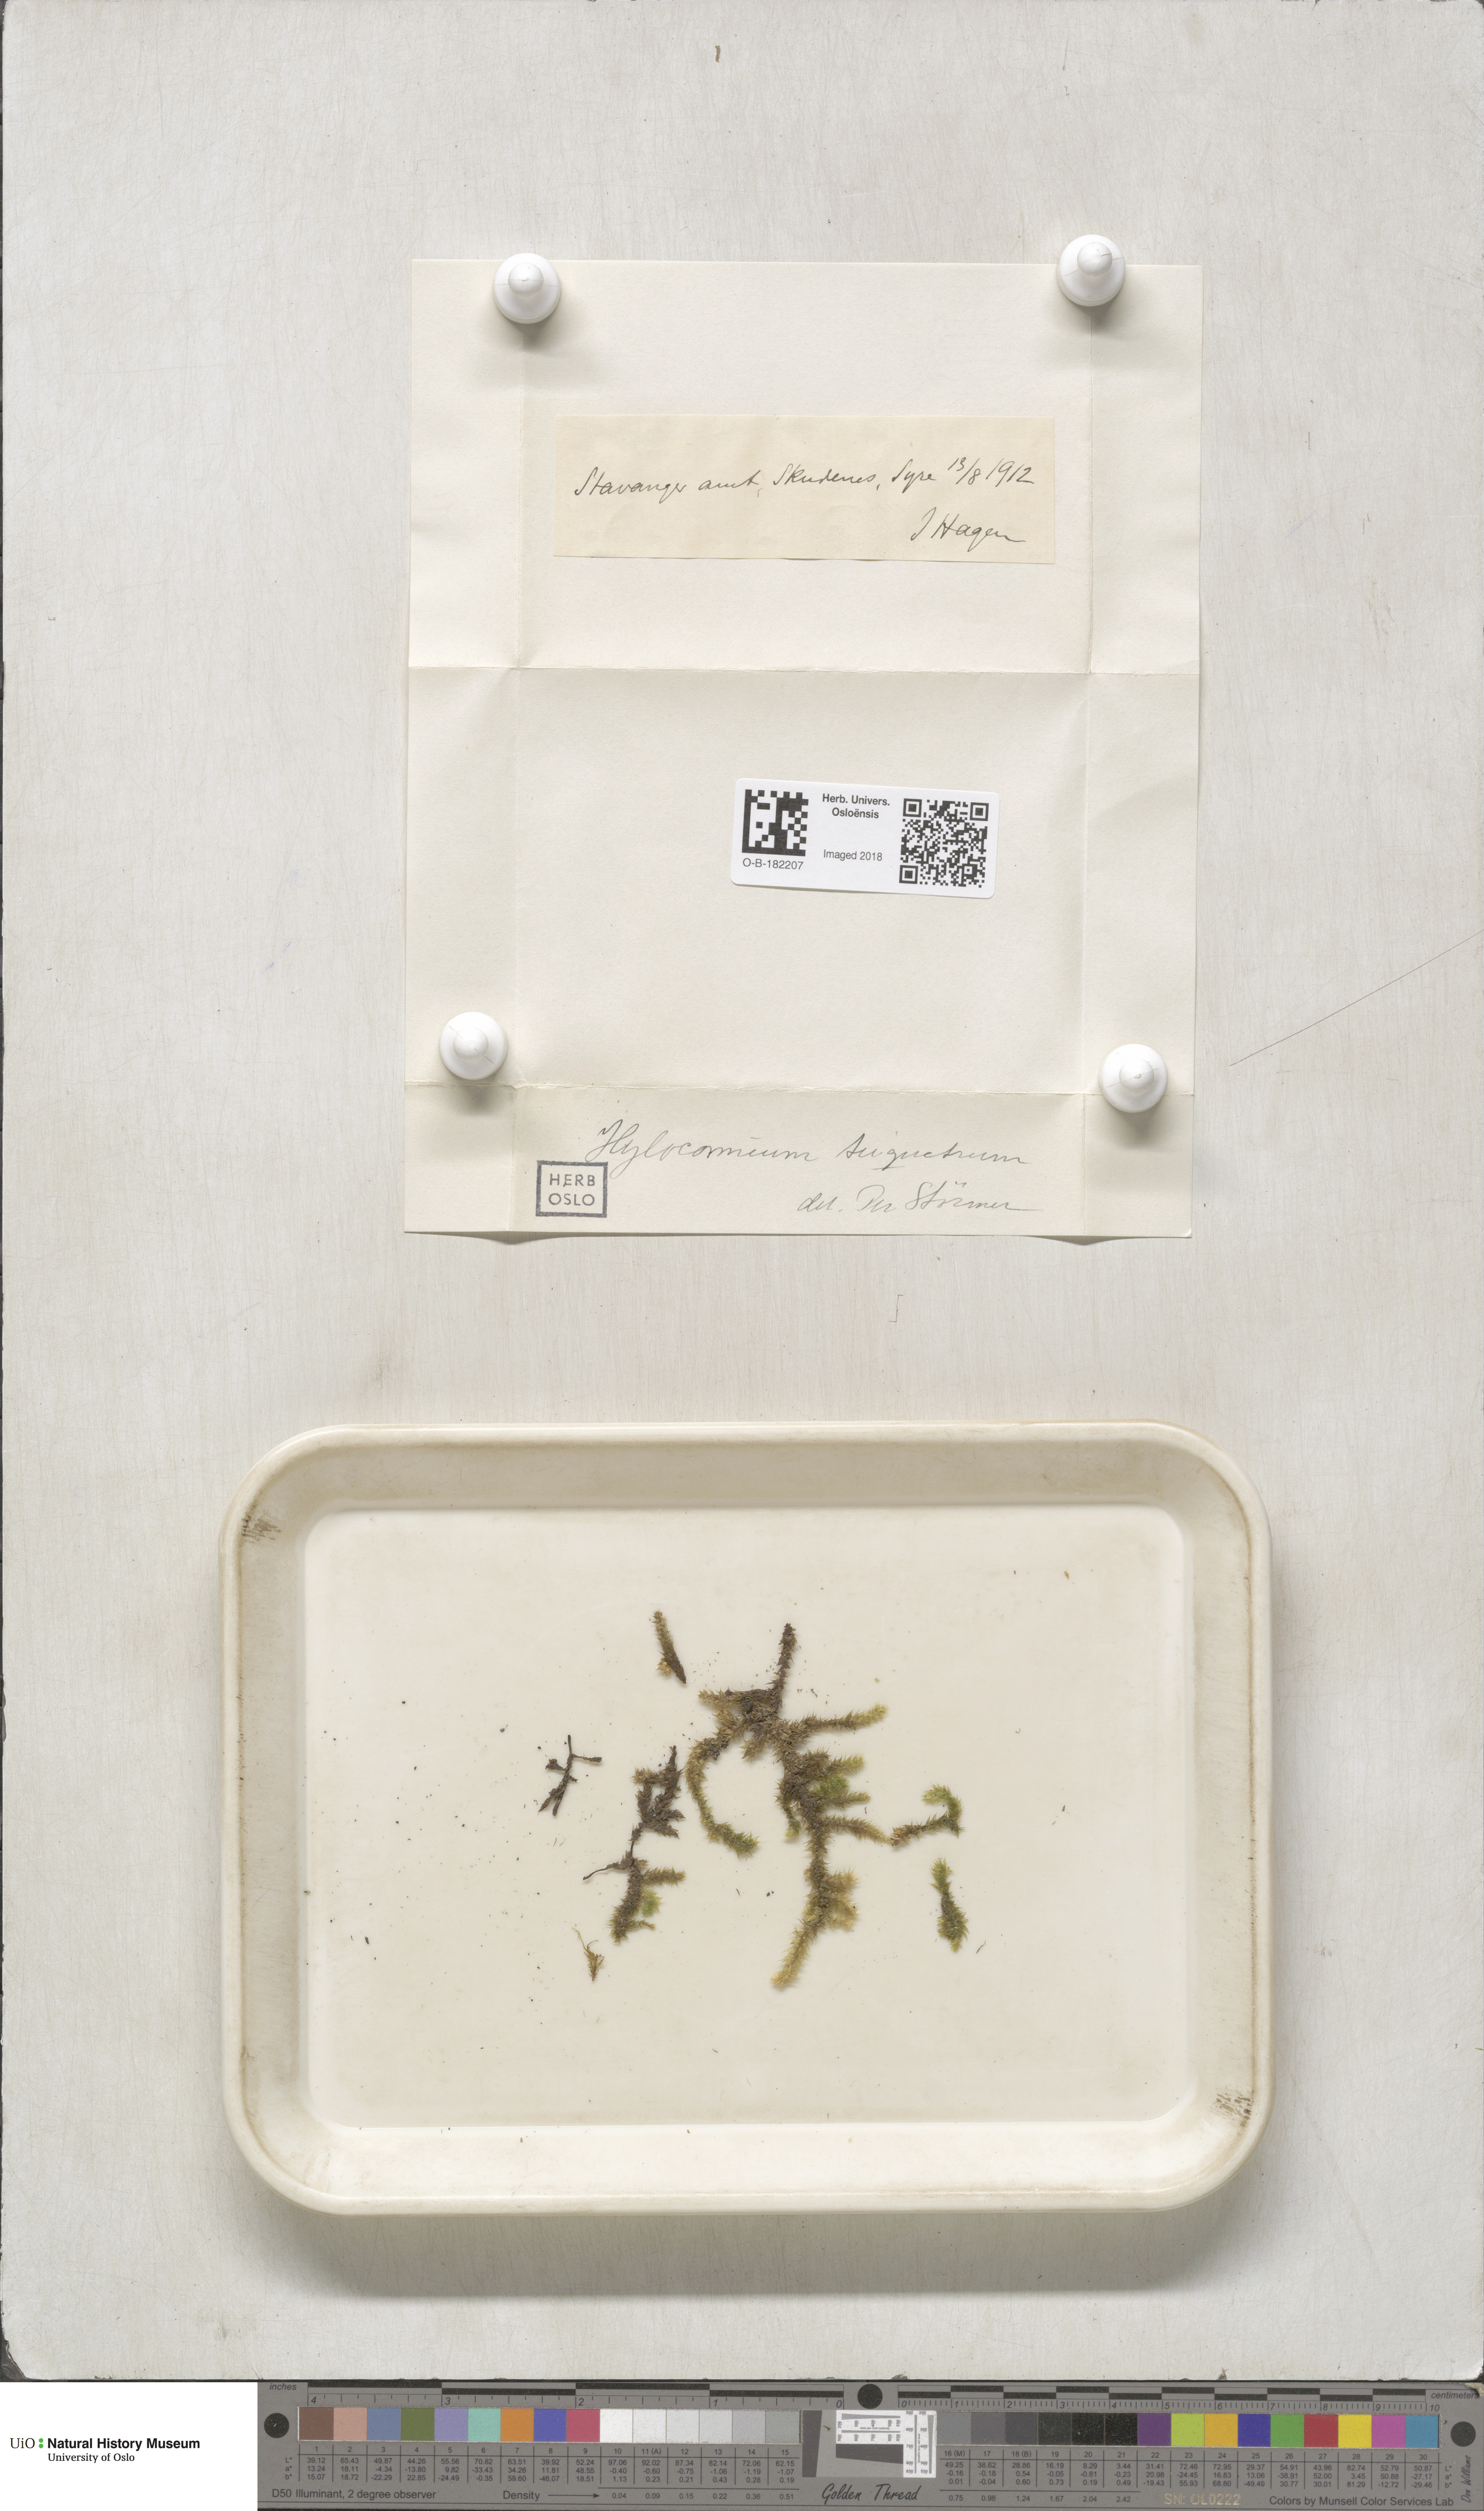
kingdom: Plantae
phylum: Bryophyta
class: Bryopsida
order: Hypnales
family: Hylocomiaceae
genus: Hylocomiadelphus
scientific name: Hylocomiadelphus triquetrus
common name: Rough goose neck moss
